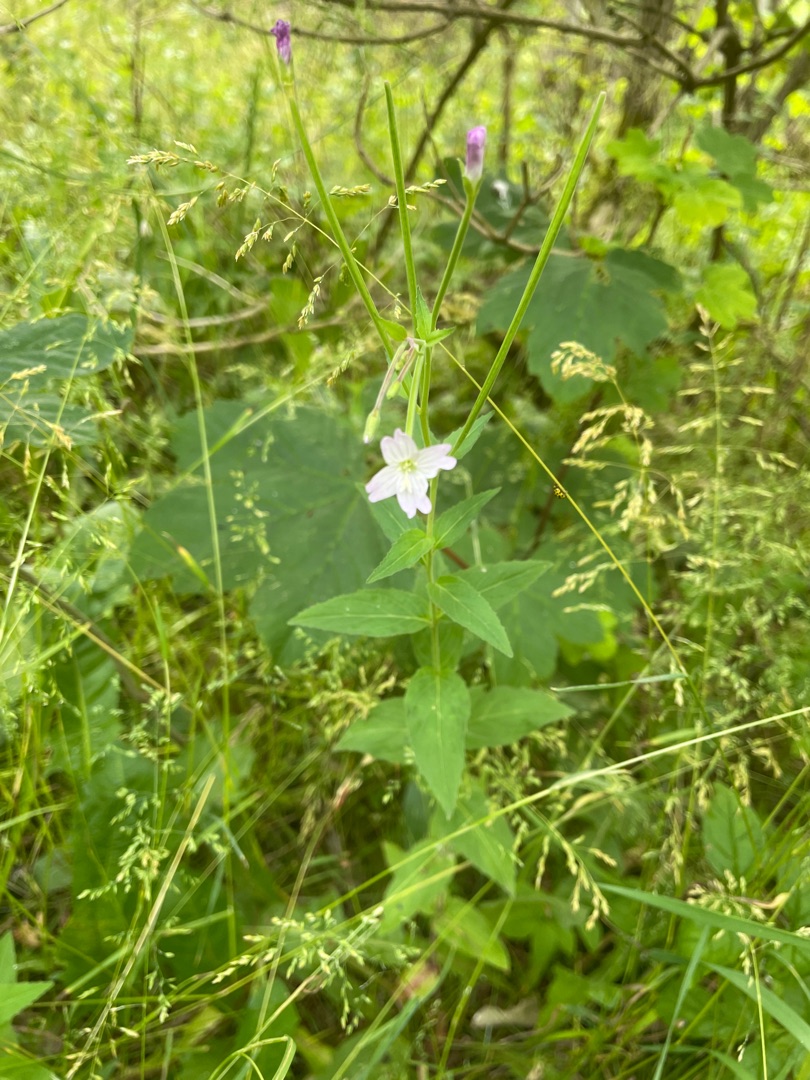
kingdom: Plantae
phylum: Tracheophyta
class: Magnoliopsida
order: Myrtales
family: Onagraceae
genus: Epilobium
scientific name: Epilobium montanum
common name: Glat dueurt
